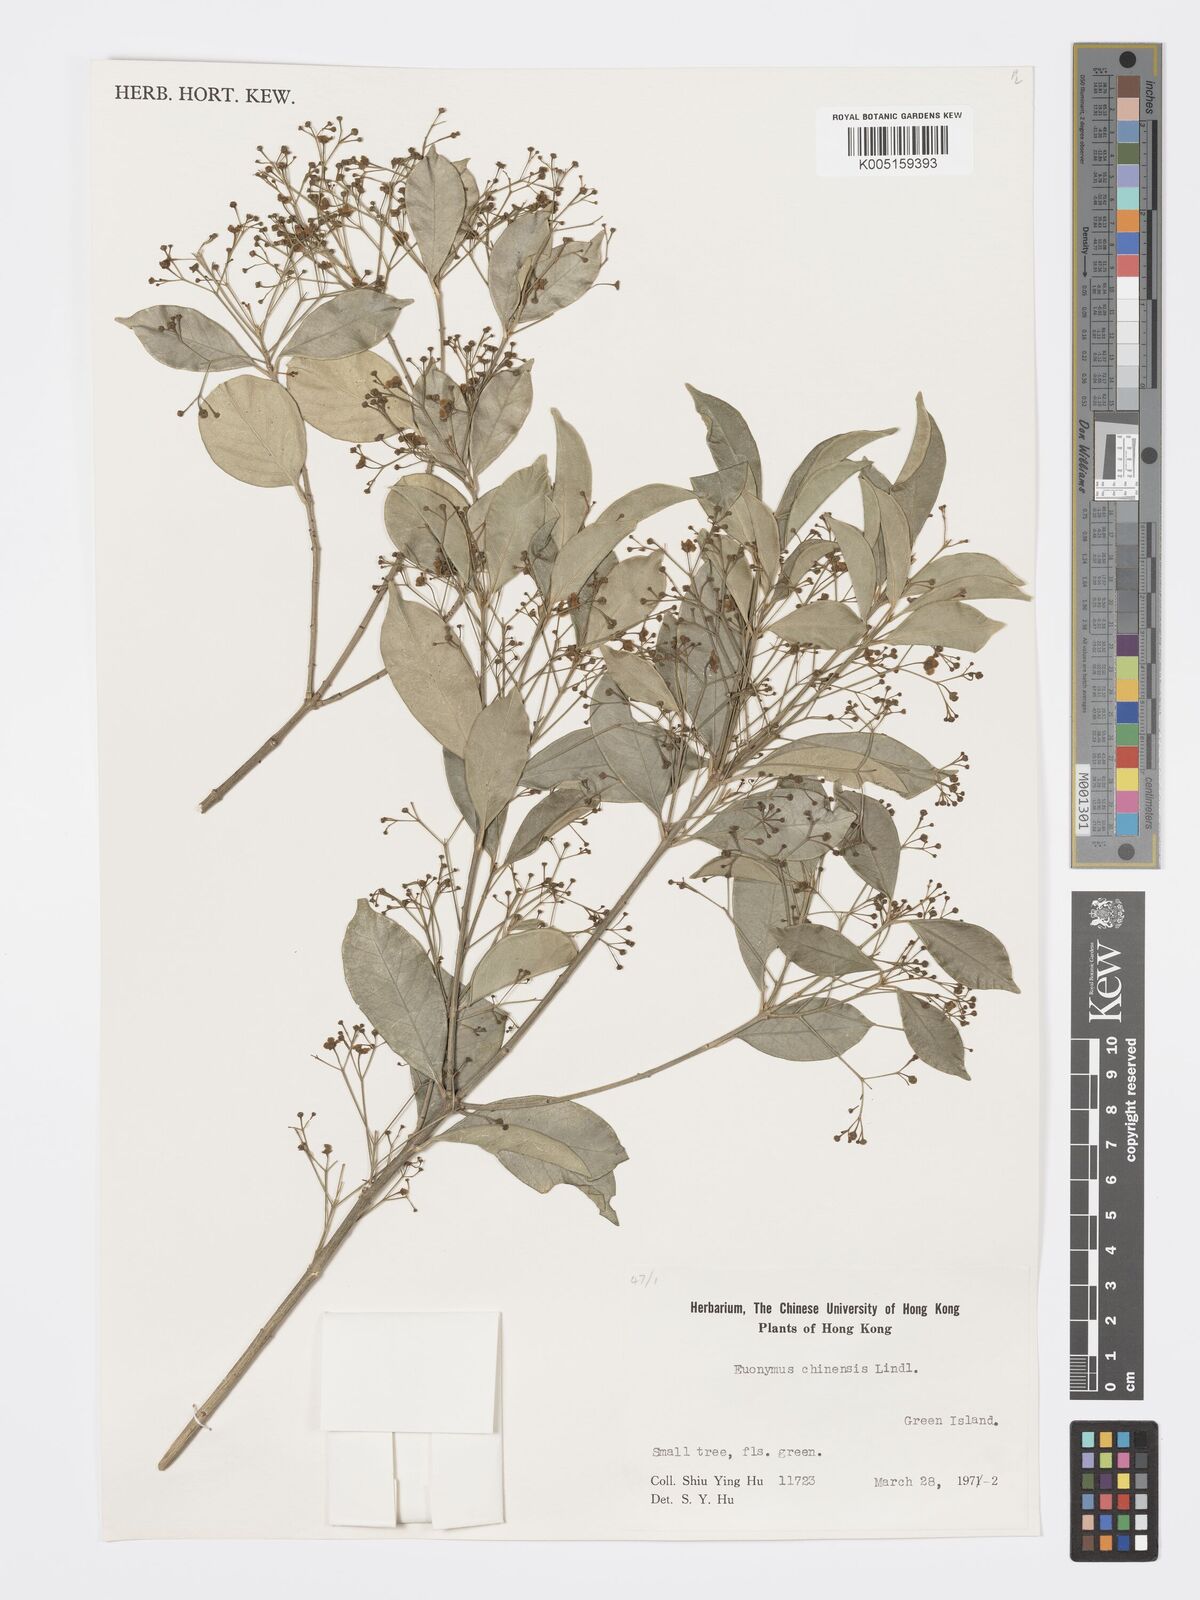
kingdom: Plantae
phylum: Tracheophyta
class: Magnoliopsida
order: Celastrales
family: Celastraceae
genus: Euonymus
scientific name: Euonymus nitidus
